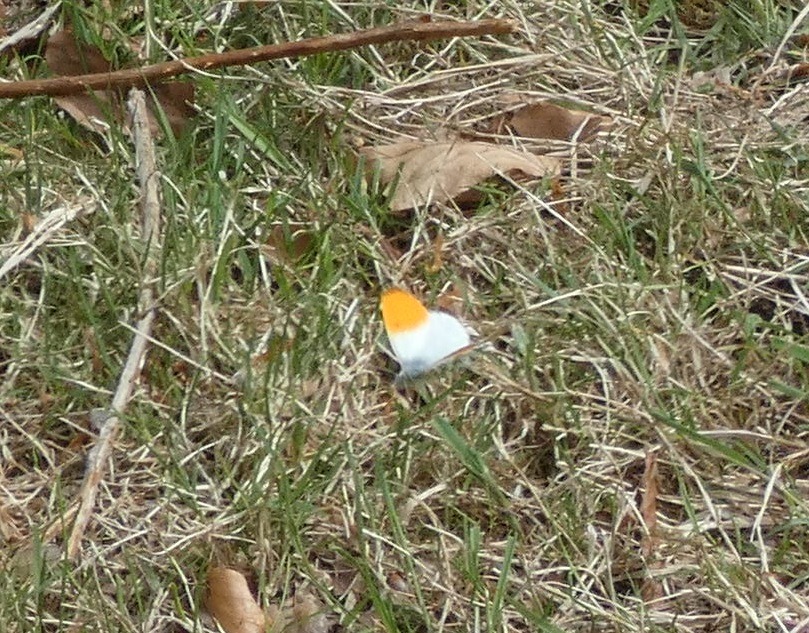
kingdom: Animalia
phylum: Arthropoda
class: Insecta
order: Lepidoptera
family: Pieridae
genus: Anthocharis
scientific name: Anthocharis cardamines
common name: Aurora
